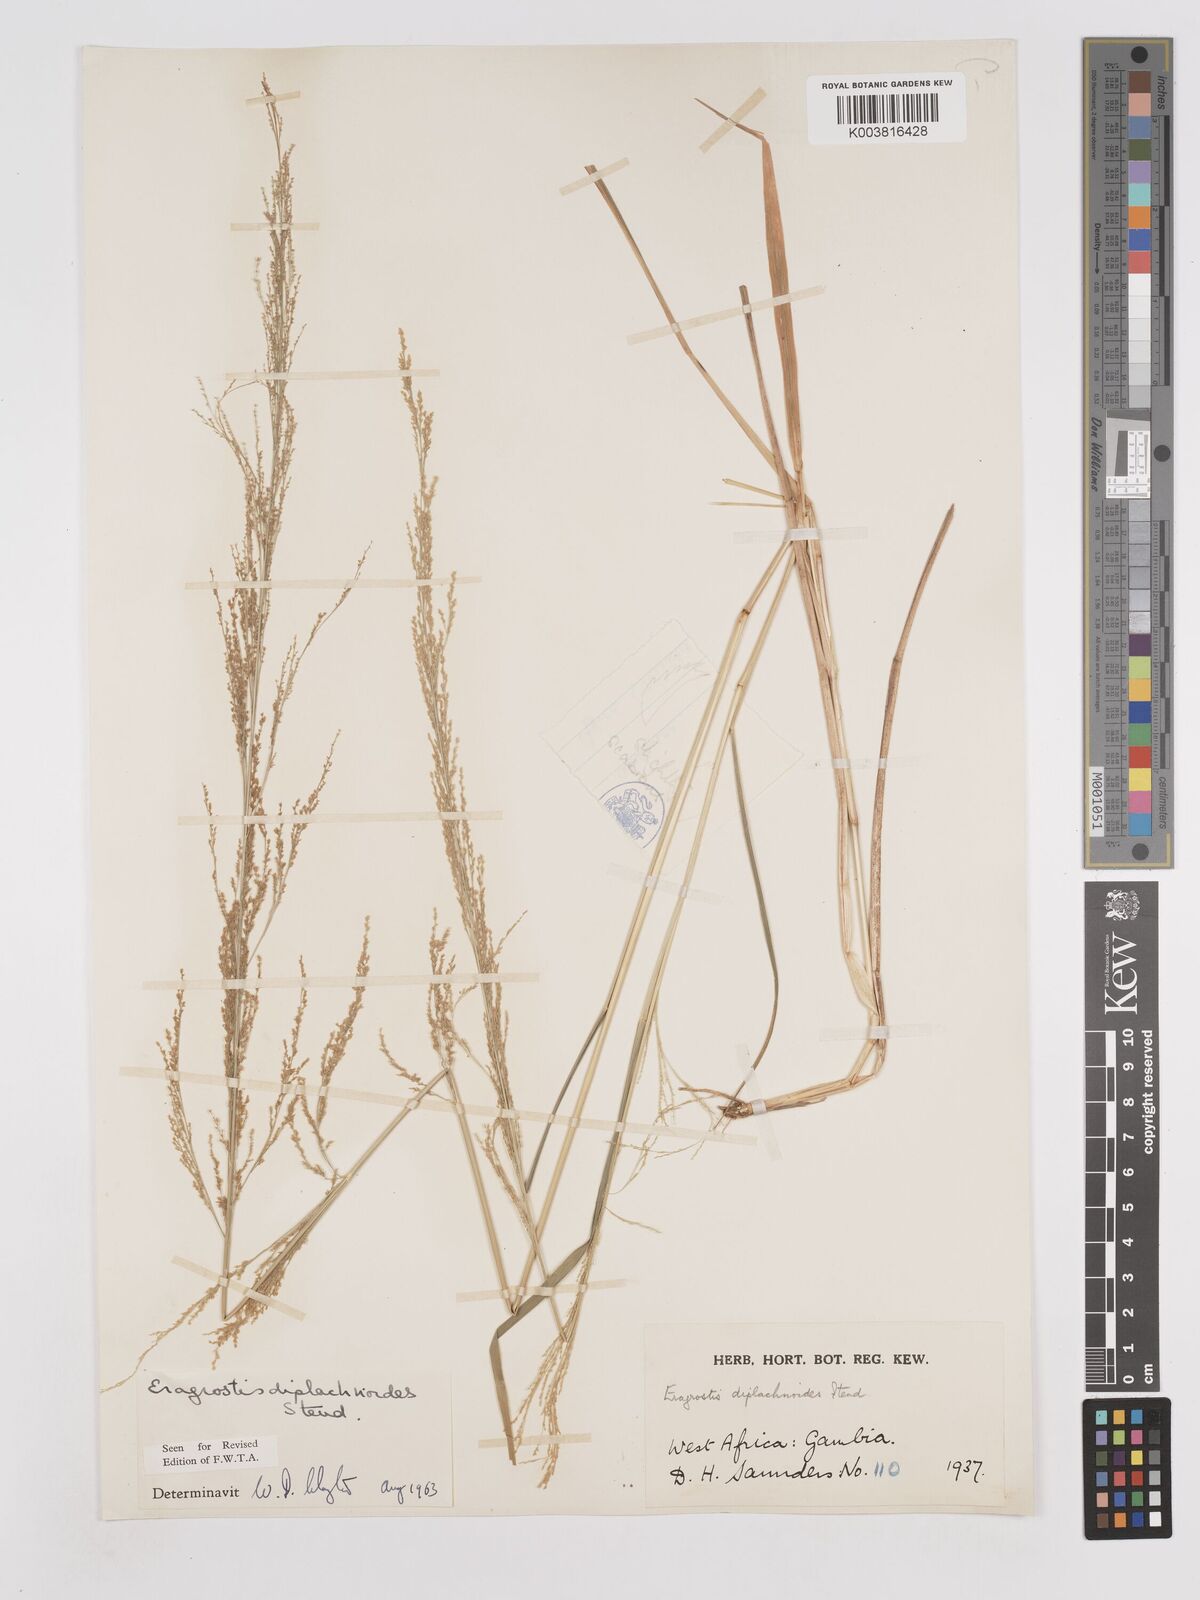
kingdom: Plantae
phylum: Tracheophyta
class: Liliopsida
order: Poales
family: Poaceae
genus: Eragrostis
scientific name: Eragrostis japonica
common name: Pond lovegrass
